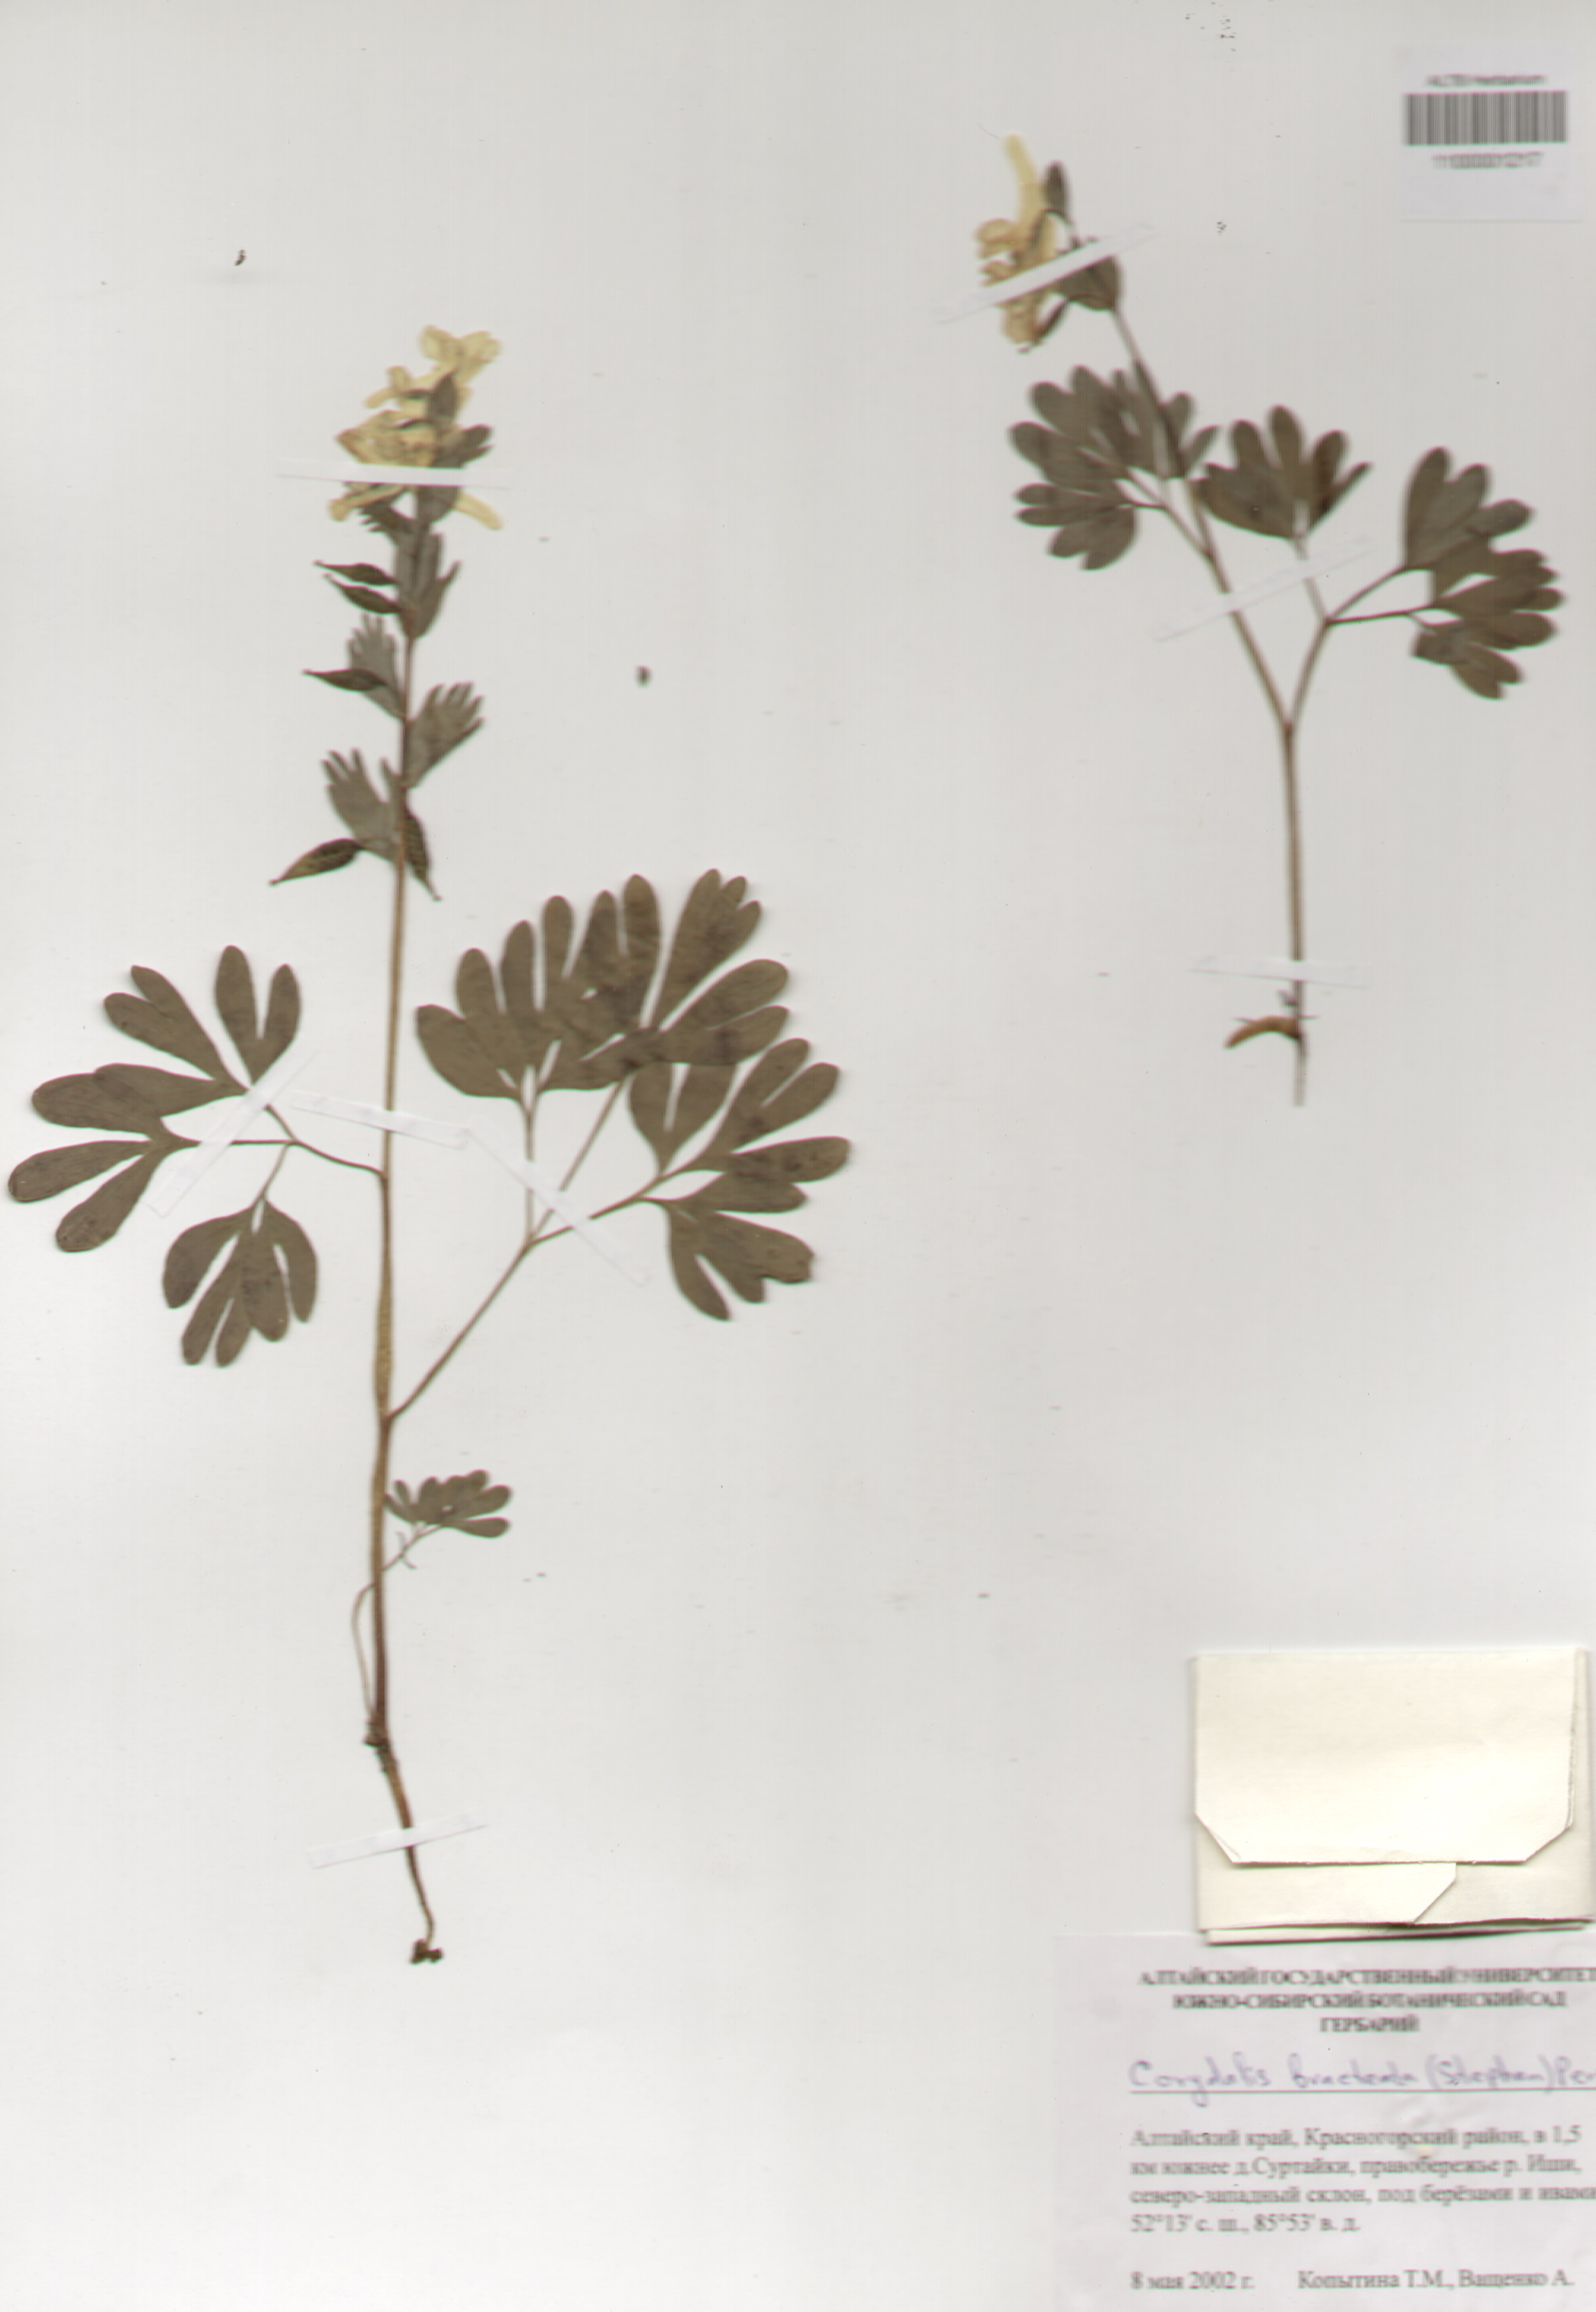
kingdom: Plantae
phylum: Tracheophyta
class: Magnoliopsida
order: Ranunculales
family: Papaveraceae
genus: Corydalis
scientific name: Corydalis bracteata
